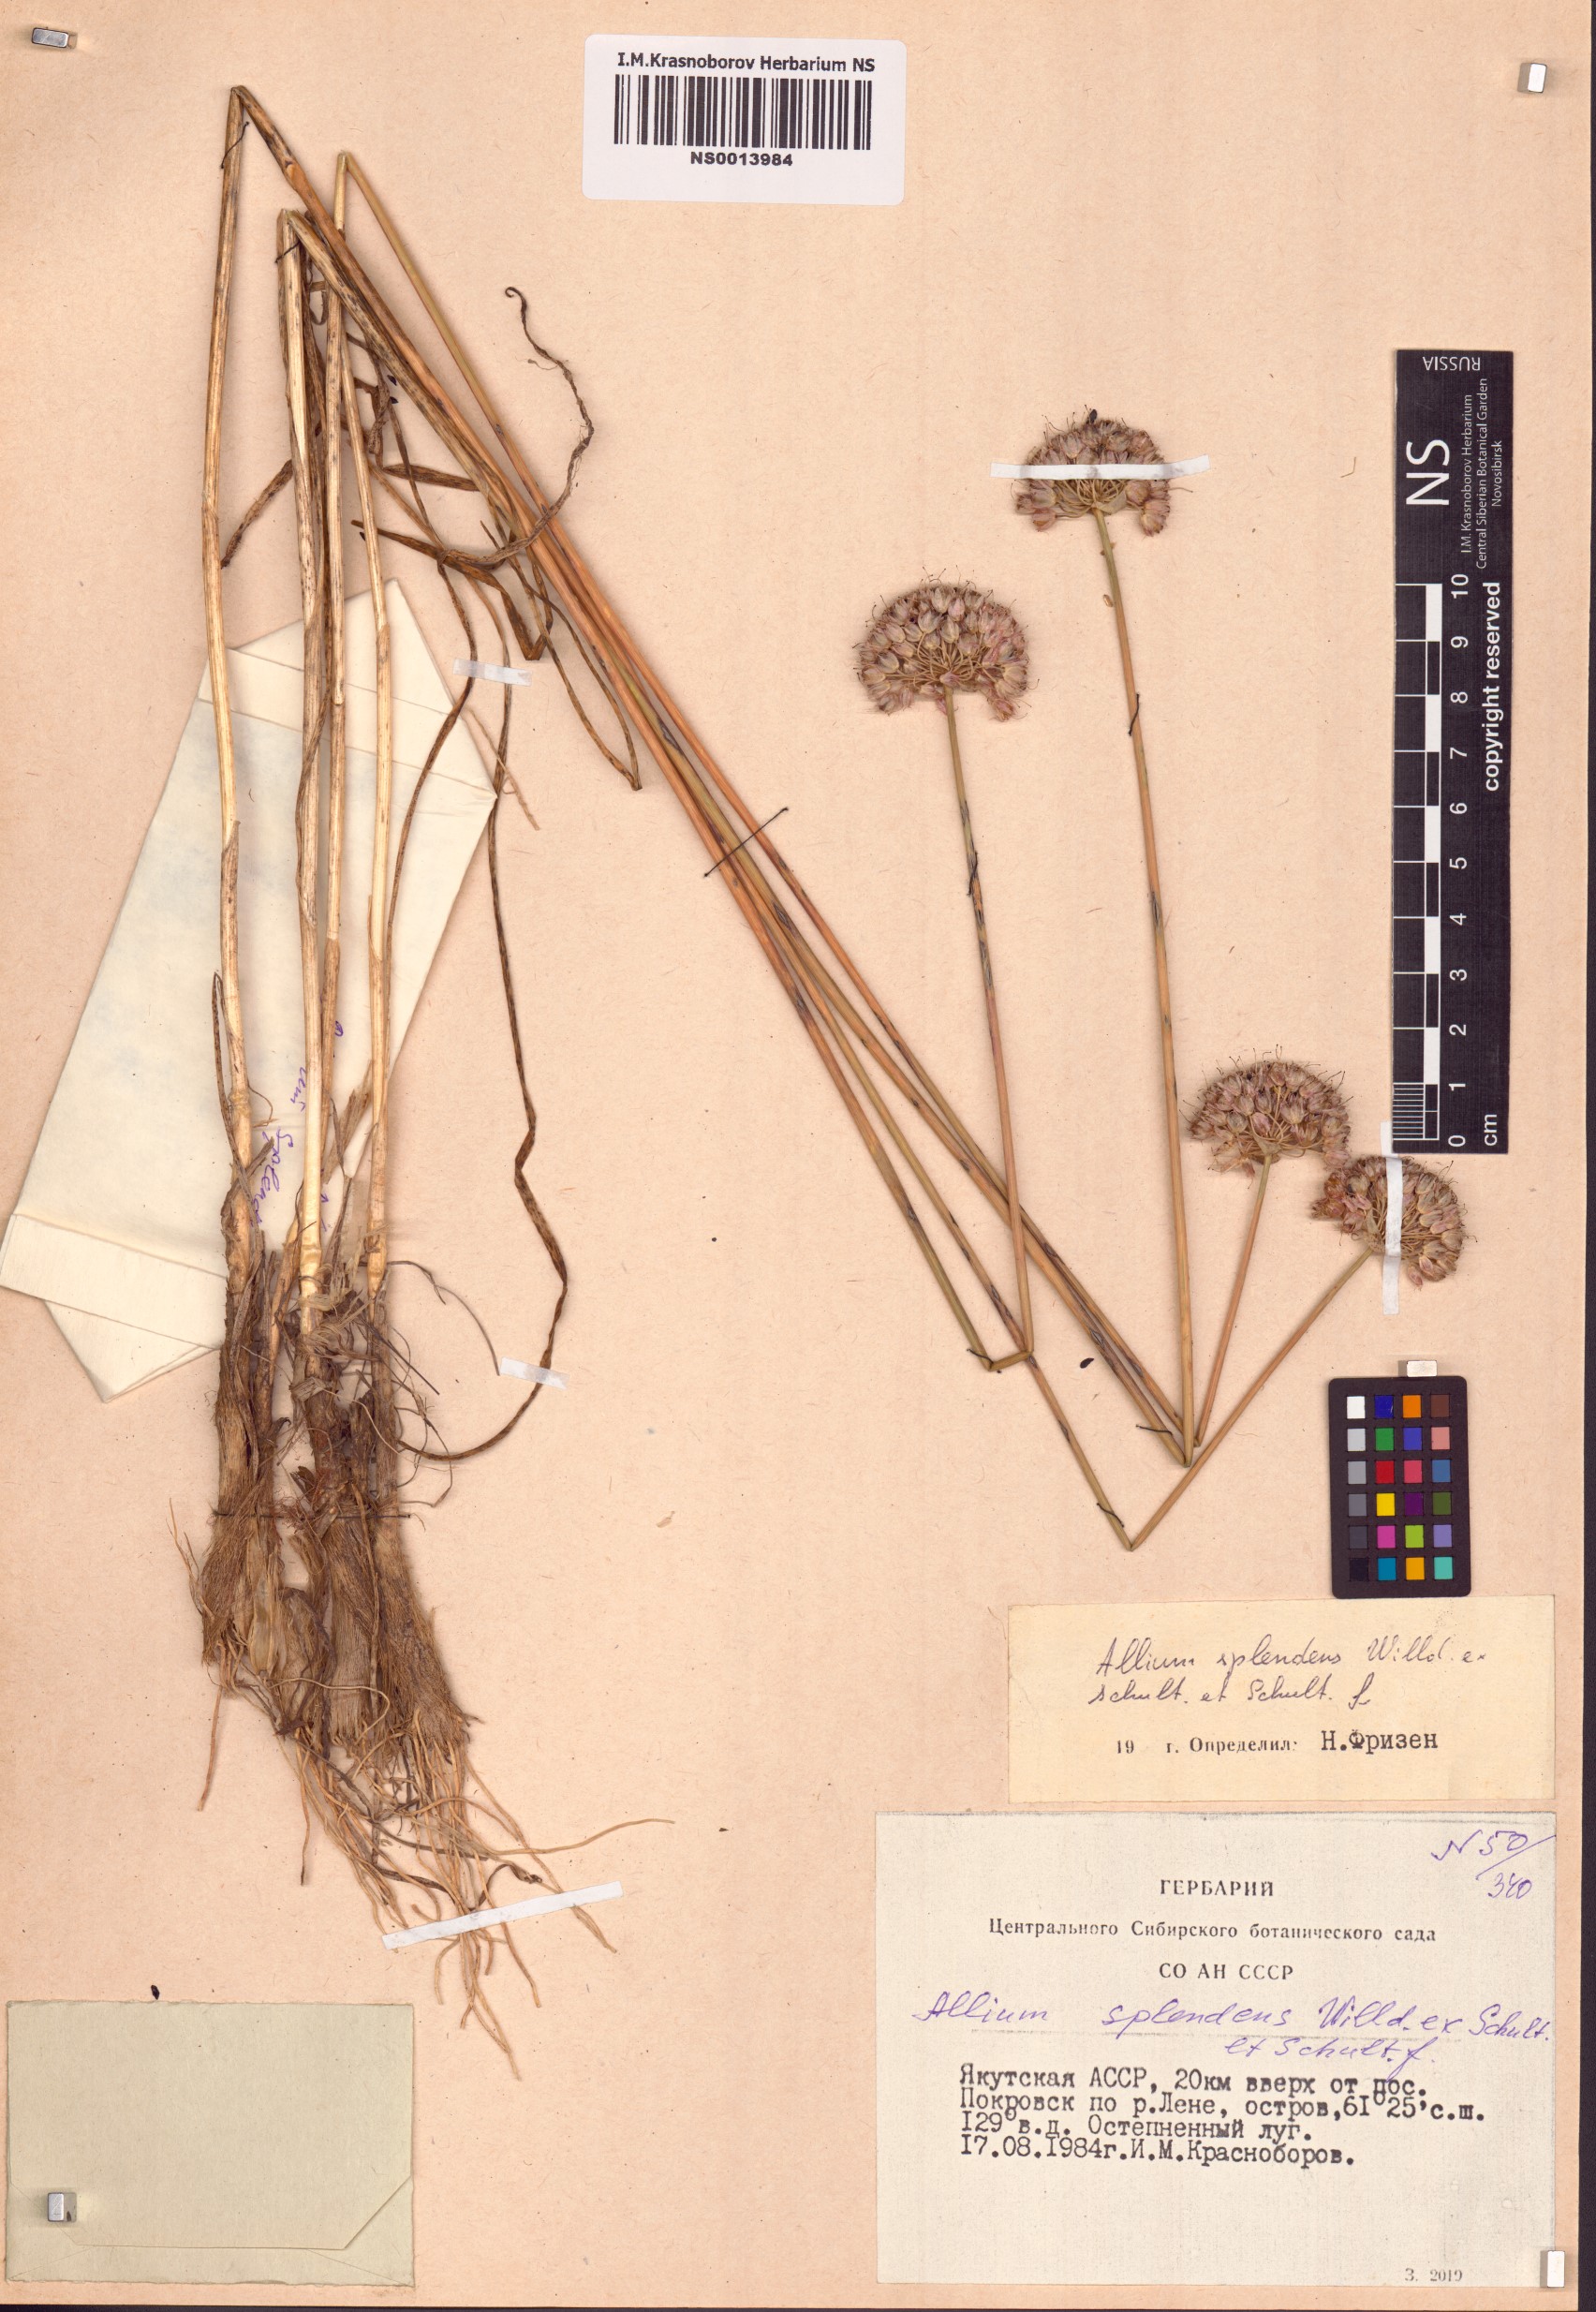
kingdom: Plantae
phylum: Tracheophyta
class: Liliopsida
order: Asparagales
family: Amaryllidaceae
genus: Allium
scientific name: Allium splendens
